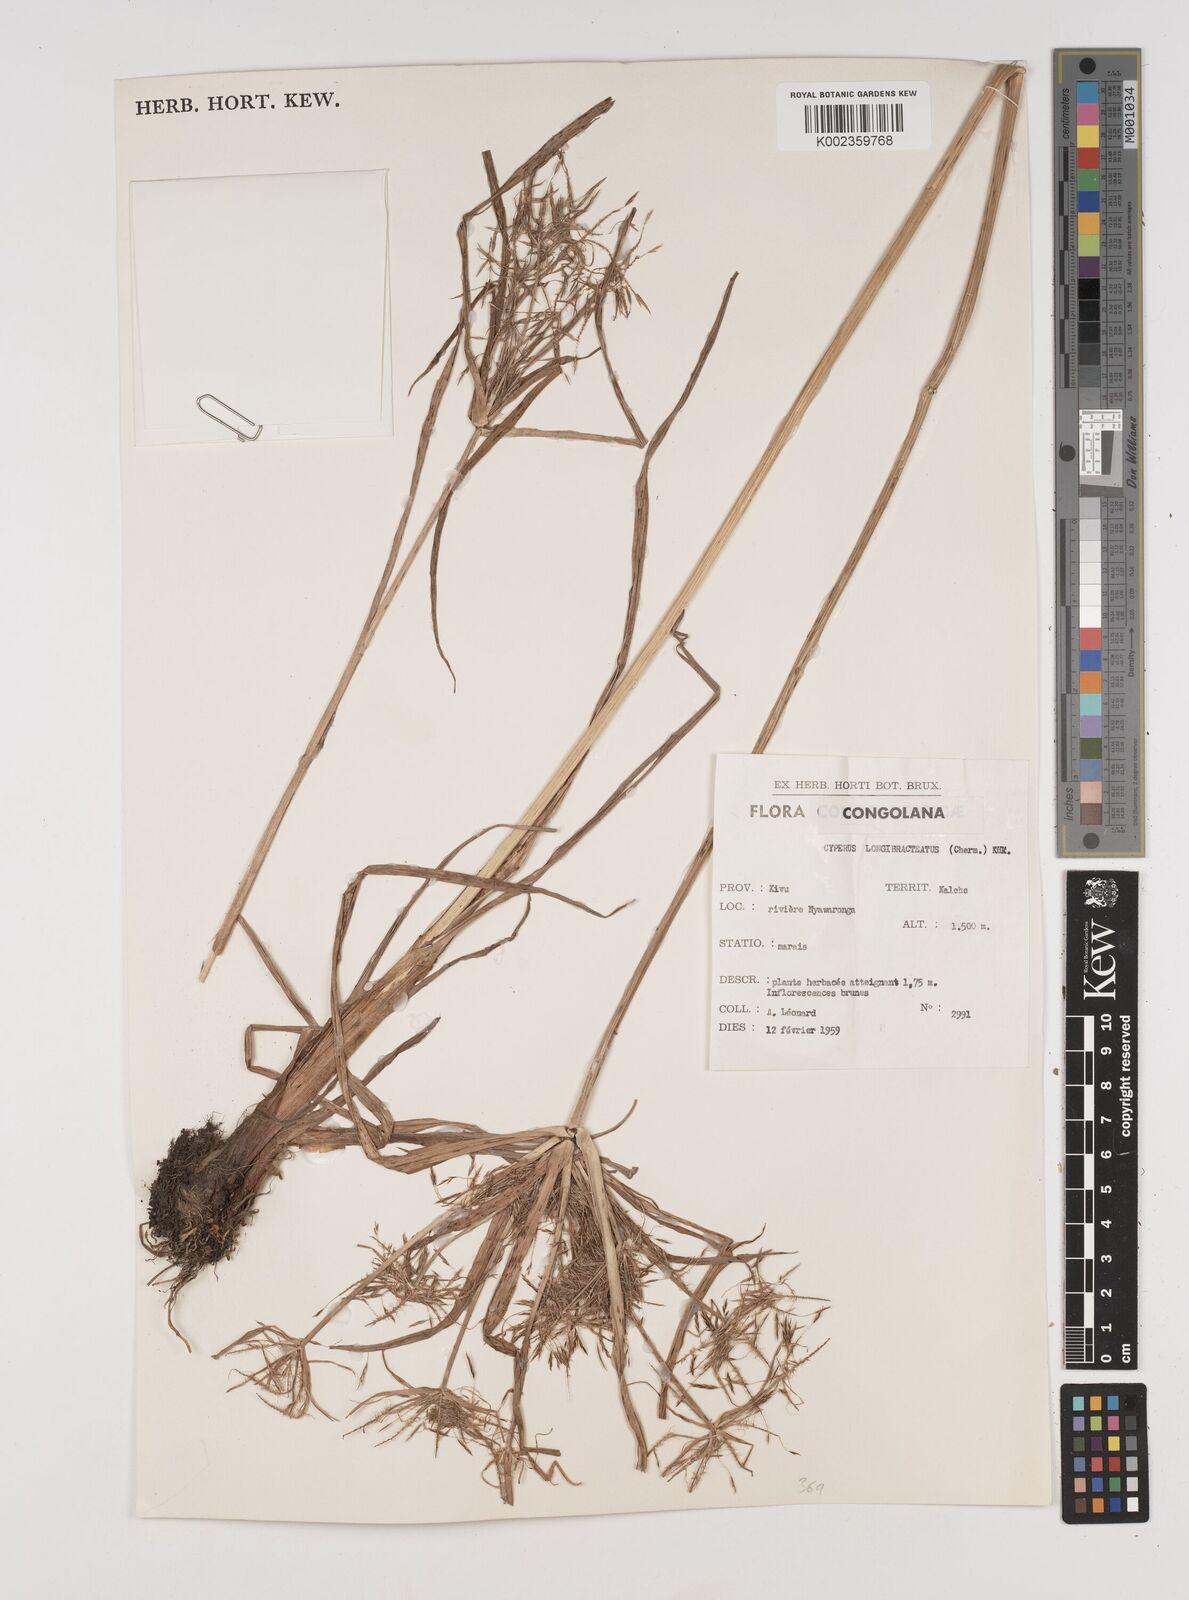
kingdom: Plantae
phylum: Tracheophyta
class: Liliopsida
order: Poales
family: Cyperaceae
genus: Cyperus
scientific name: Cyperus distans
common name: Slender cyperus
